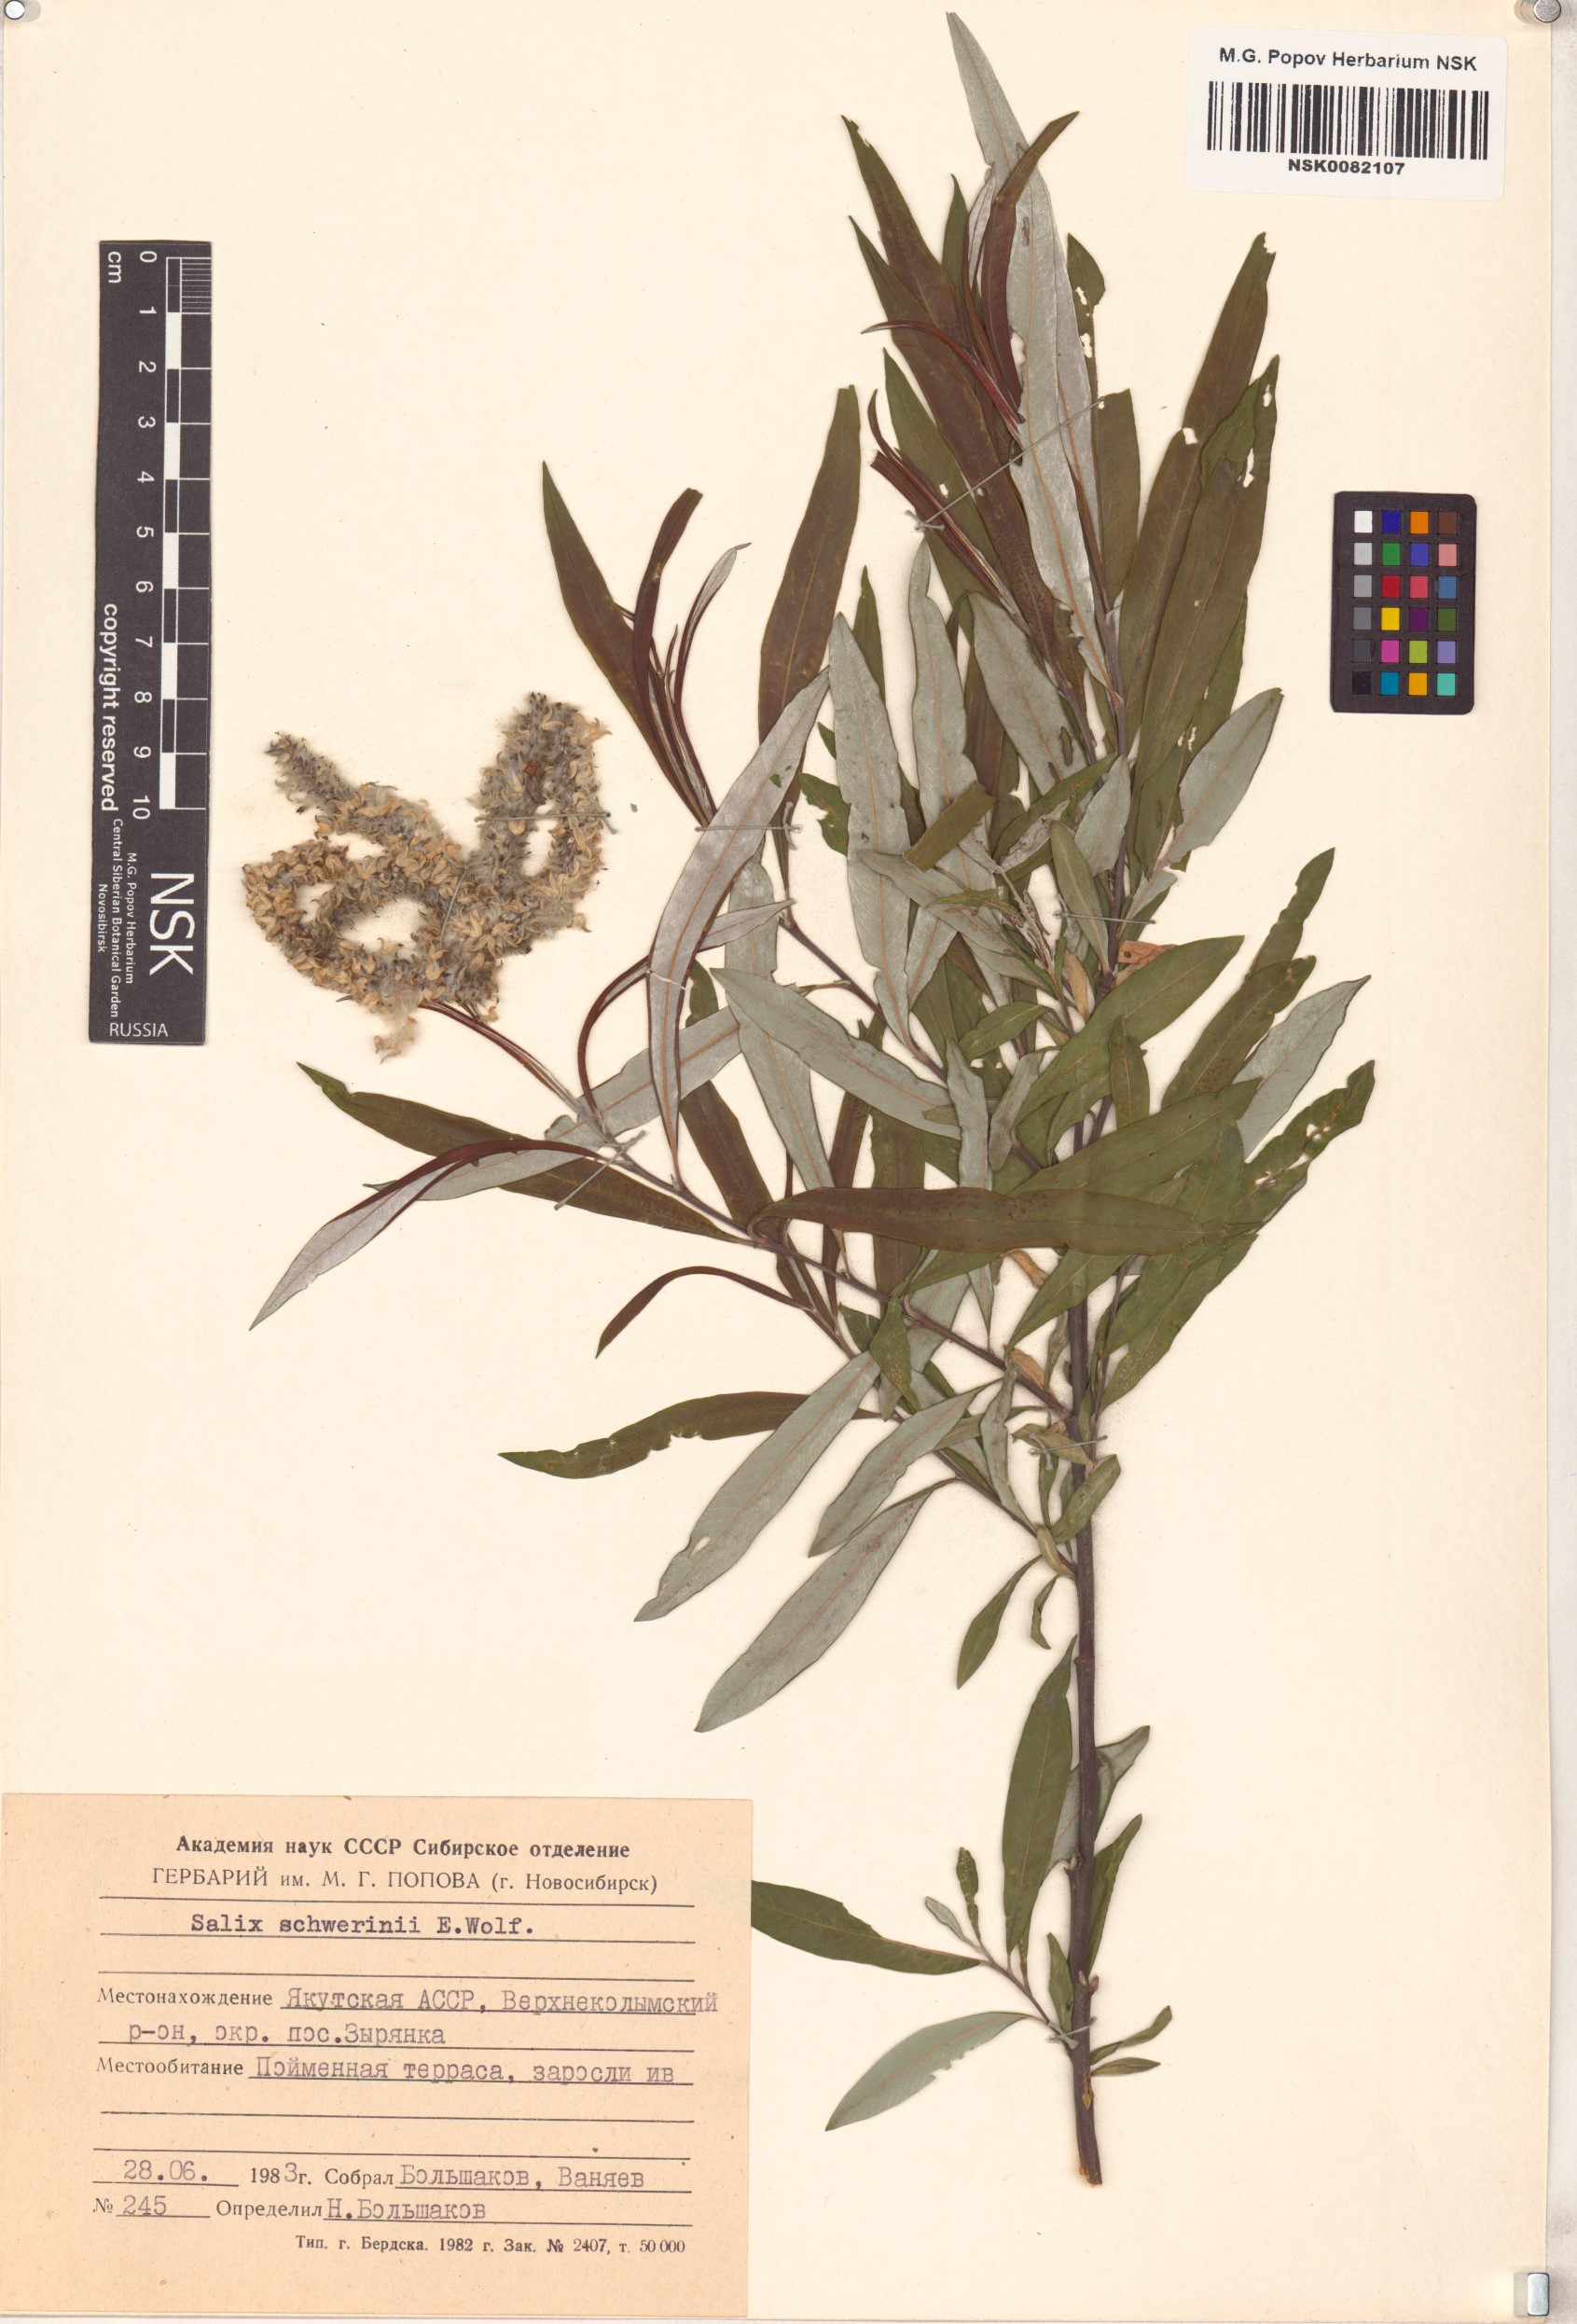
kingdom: Plantae
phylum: Tracheophyta
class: Magnoliopsida
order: Malpighiales
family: Salicaceae
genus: Salix
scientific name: Salix schwerinii
